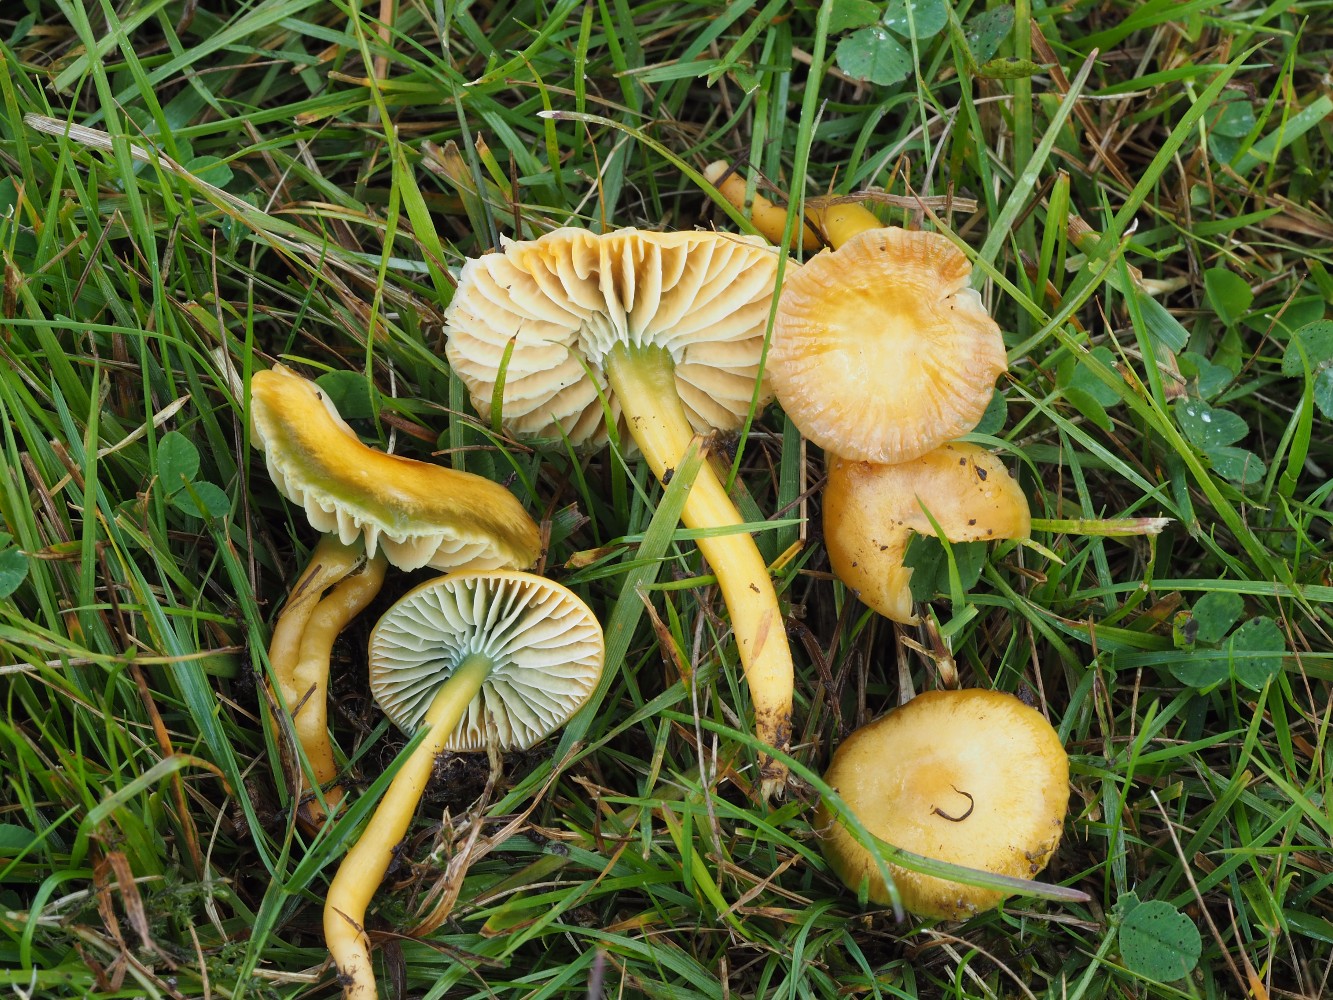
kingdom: Fungi
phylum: Basidiomycota
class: Agaricomycetes
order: Agaricales
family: Hygrophoraceae
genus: Gliophorus
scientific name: Gliophorus psittacinus
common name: papegøje-vokshat
